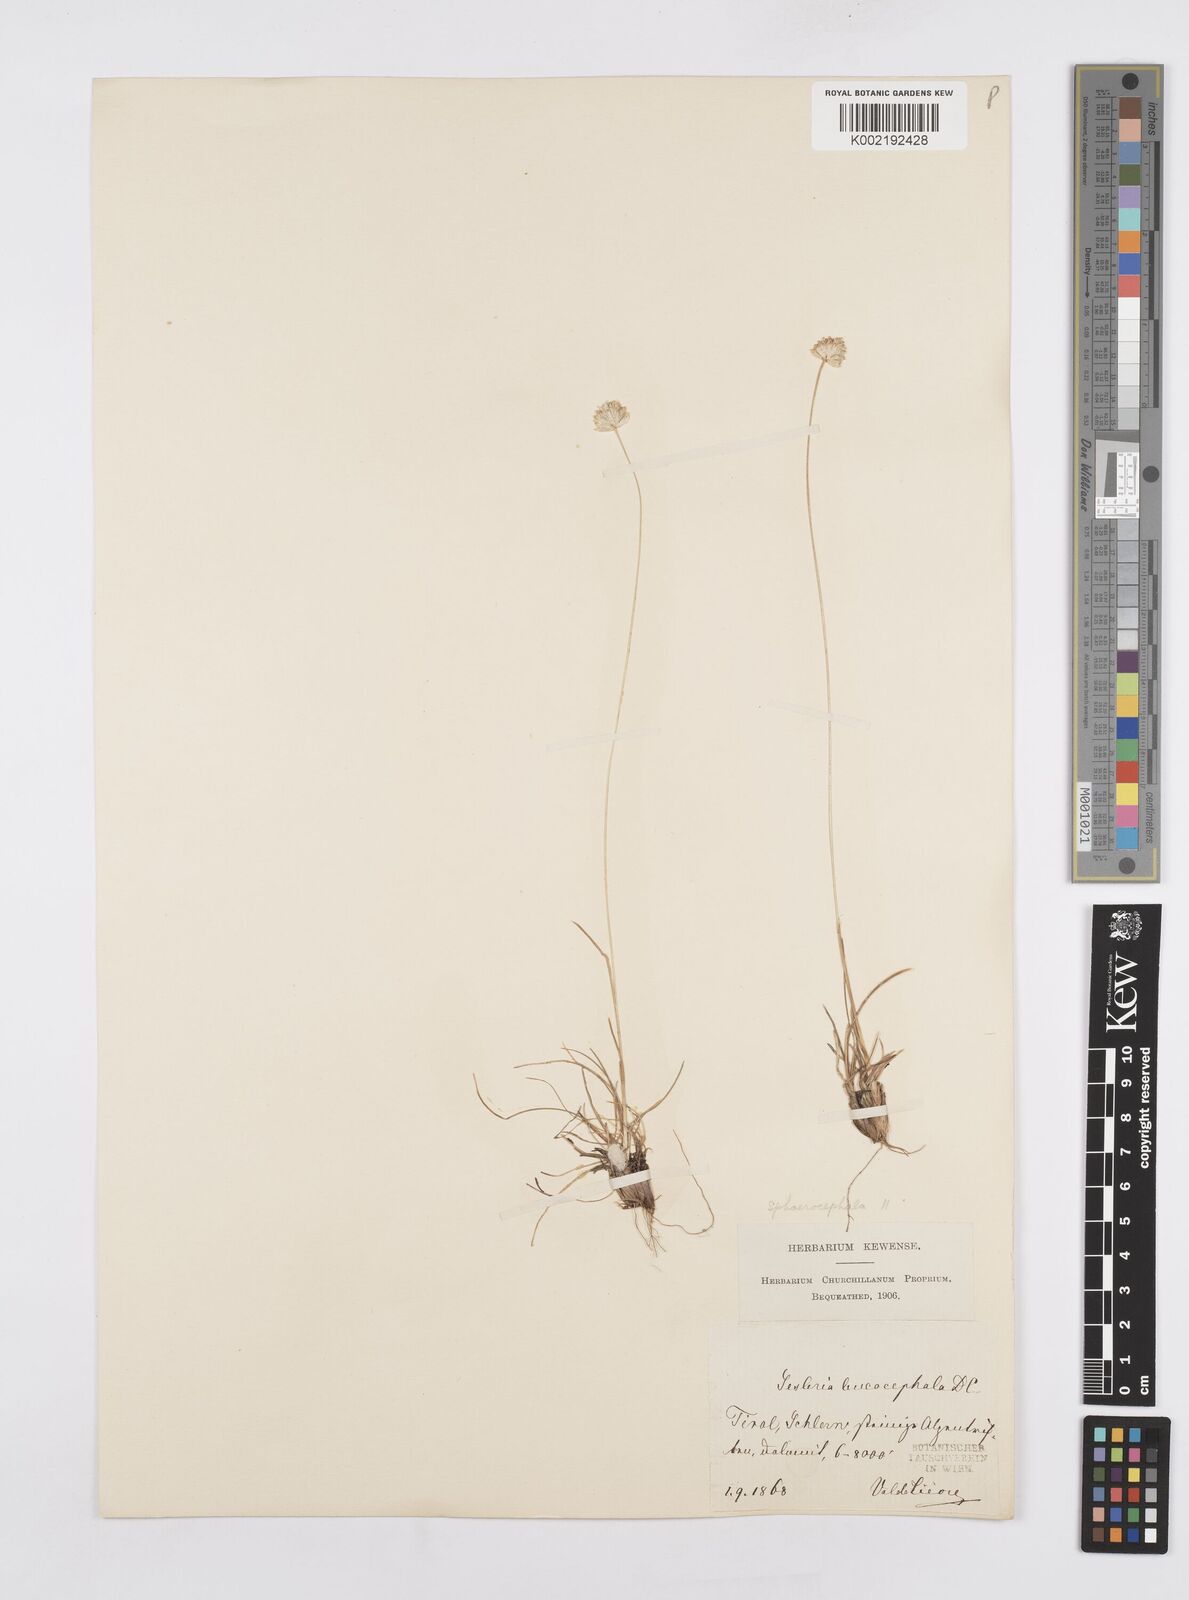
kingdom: Plantae
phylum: Tracheophyta
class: Liliopsida
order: Poales
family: Poaceae
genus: Sesleriella
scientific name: Sesleriella sphaerocephala
